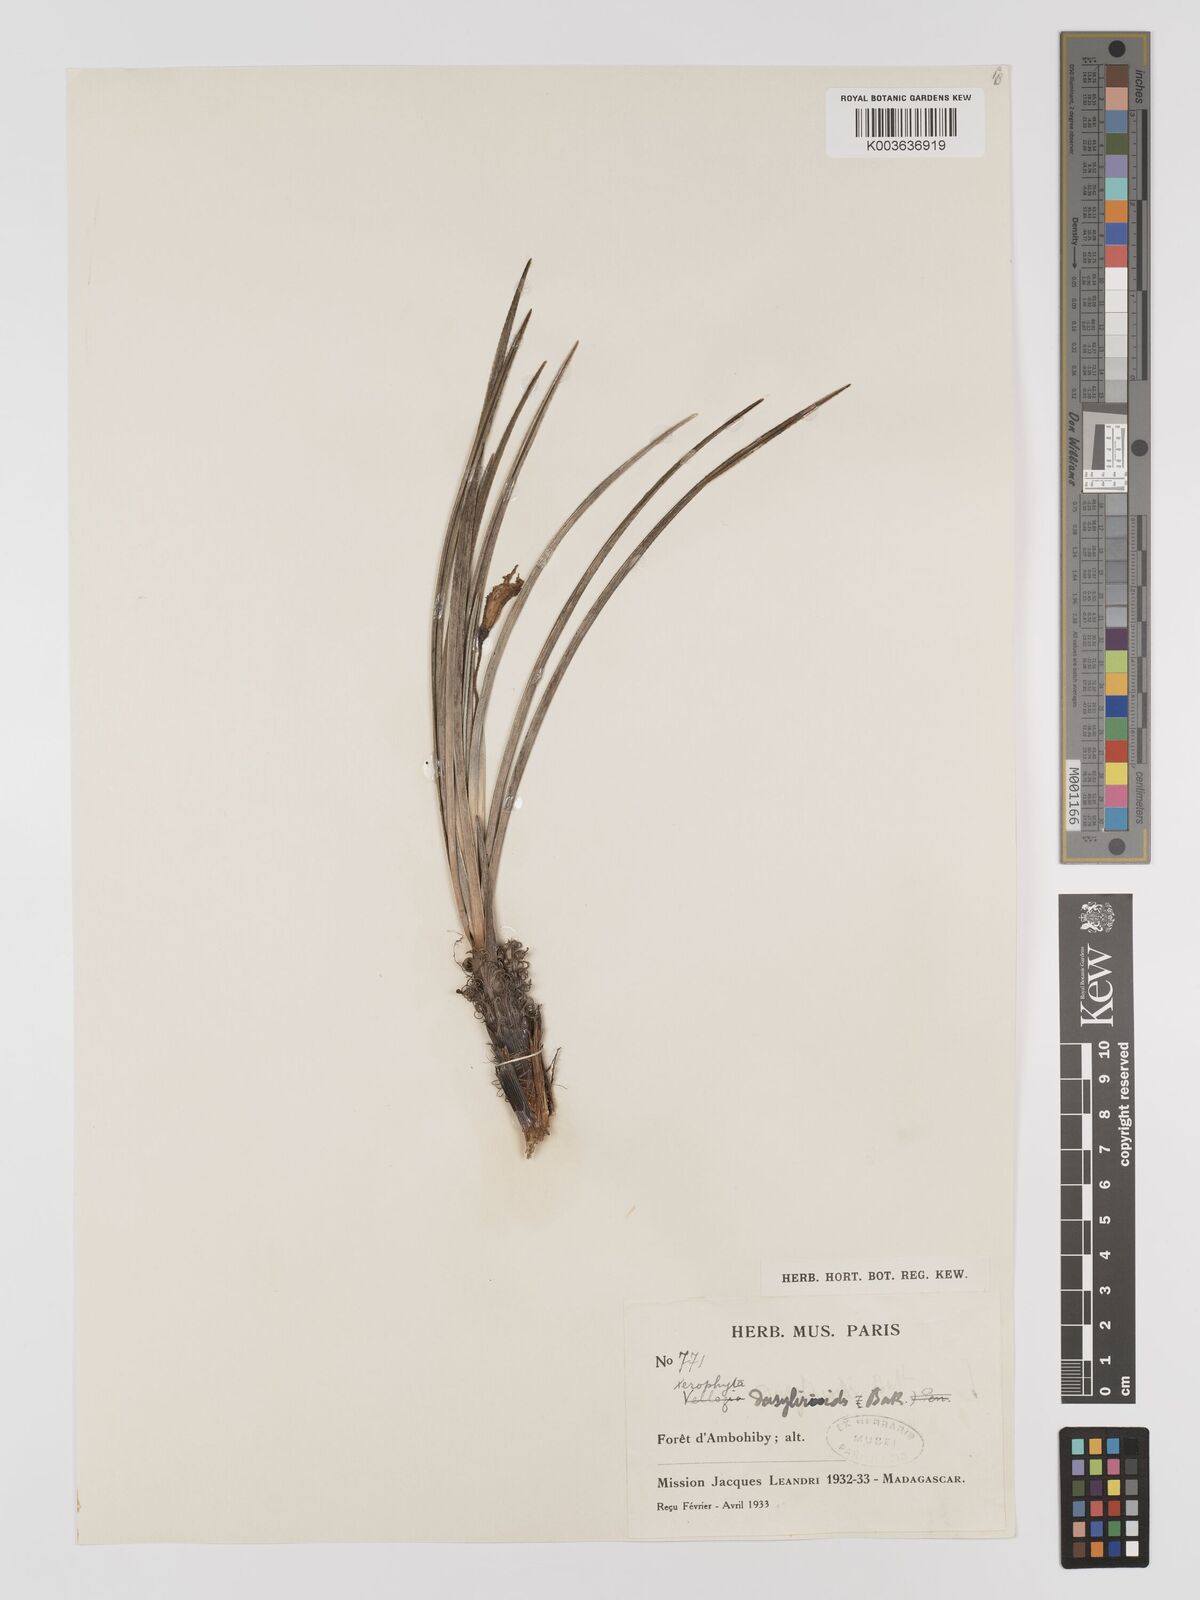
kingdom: Plantae
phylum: Tracheophyta
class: Liliopsida
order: Pandanales
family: Velloziaceae
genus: Xerophyta
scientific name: Xerophyta dasylirioides
